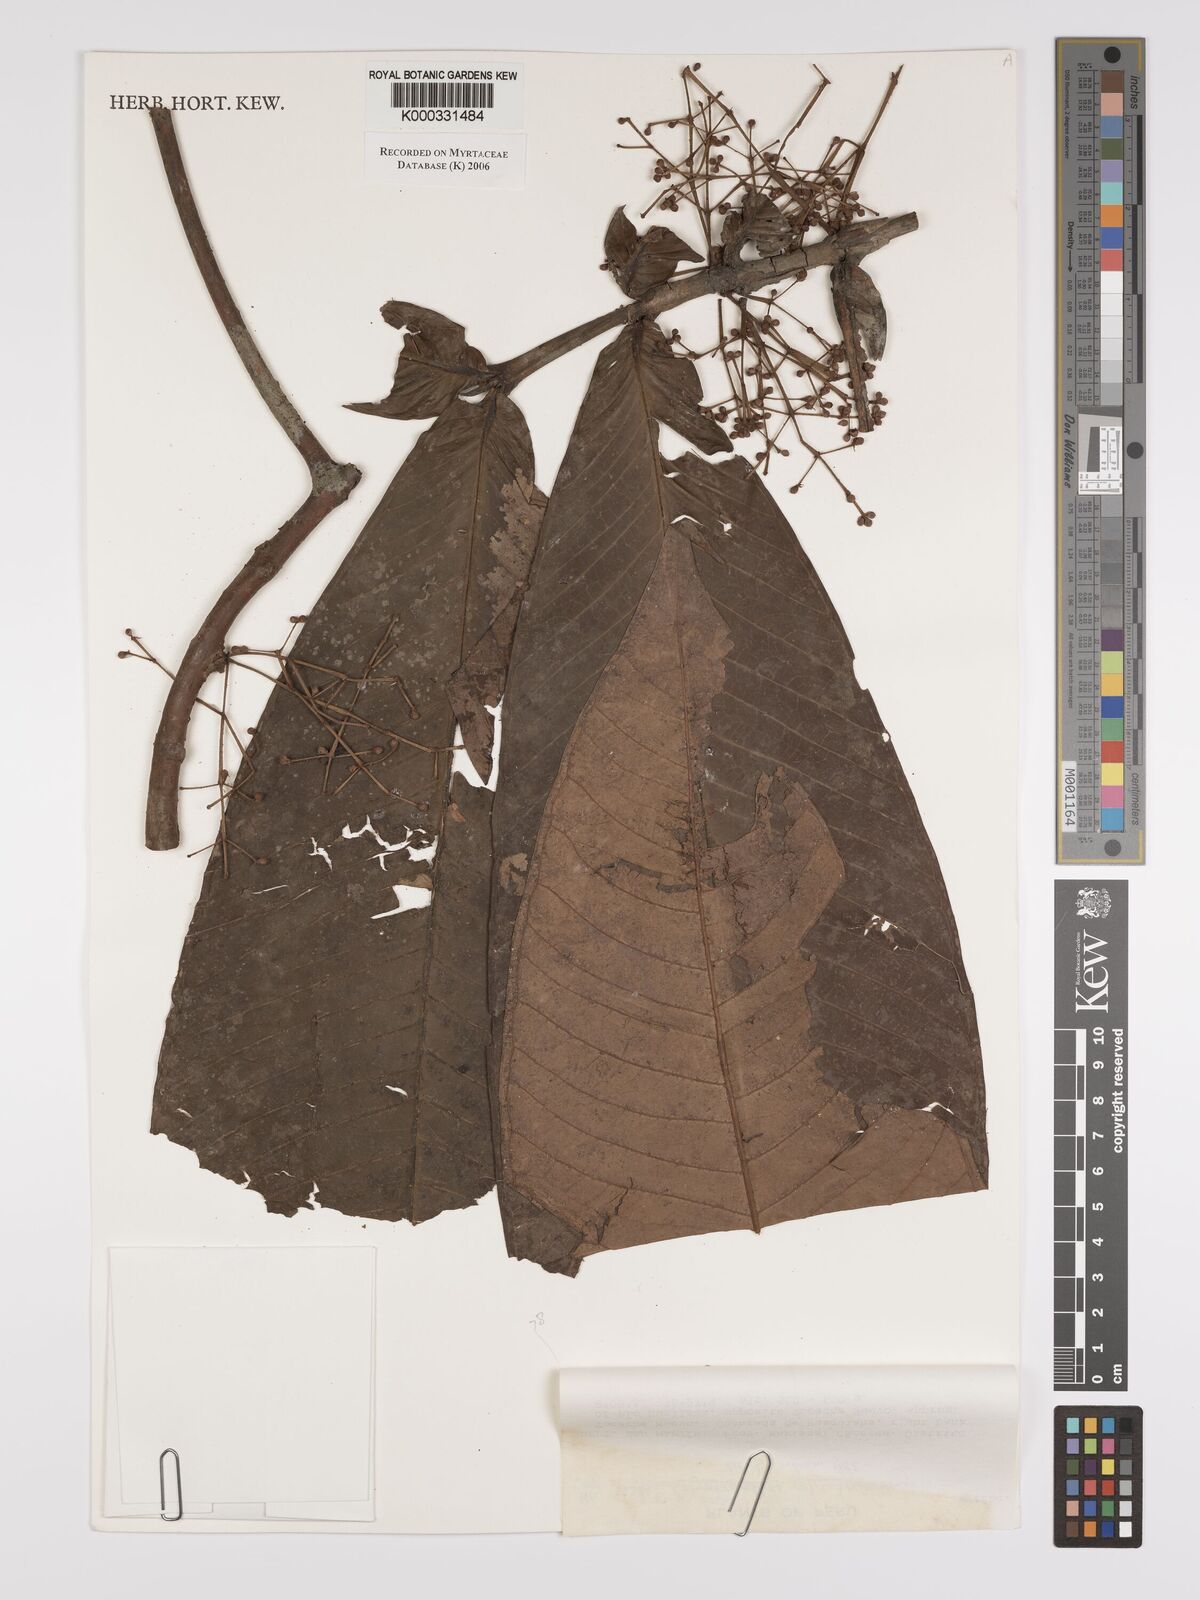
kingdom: Plantae
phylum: Tracheophyta
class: Magnoliopsida
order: Myrtales
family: Myrtaceae
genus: Myrcia
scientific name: Myrcia plicata
